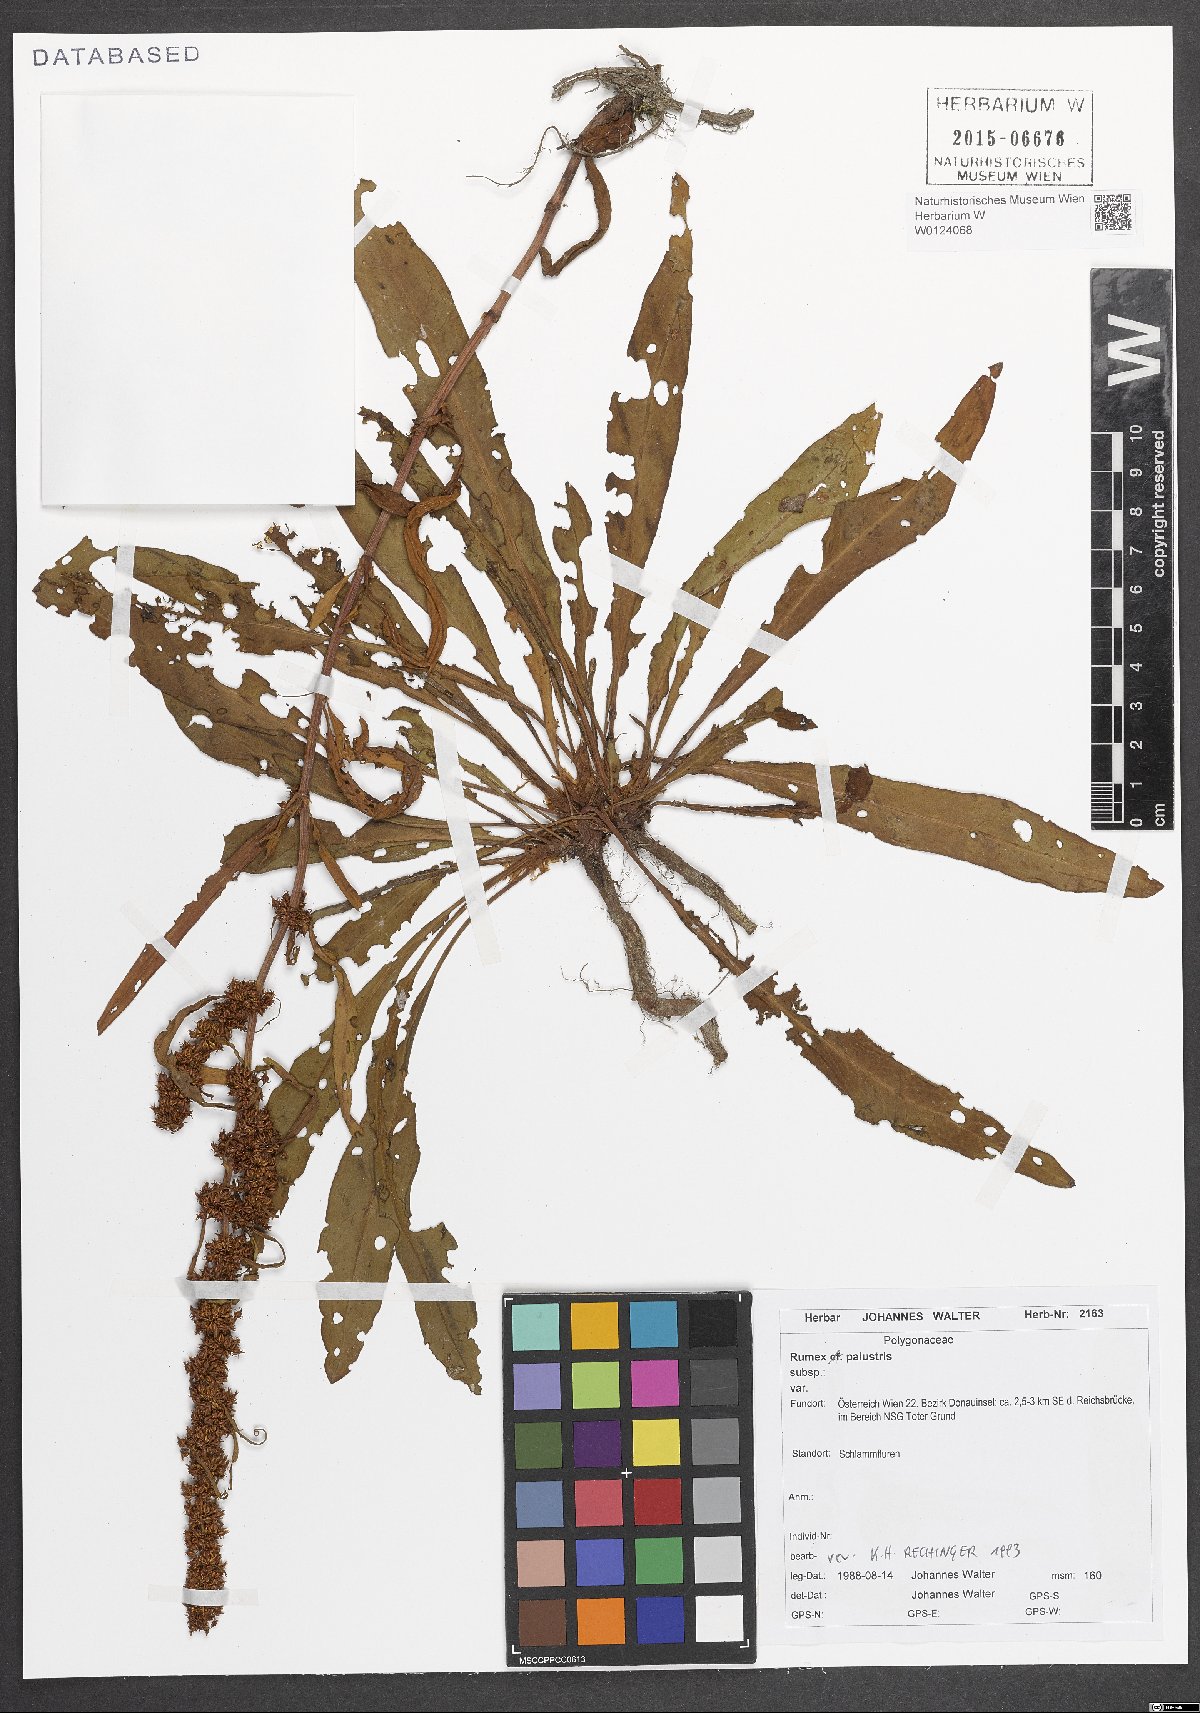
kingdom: Plantae
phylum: Tracheophyta
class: Magnoliopsida
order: Caryophyllales
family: Polygonaceae
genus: Rumex
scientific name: Rumex palustris
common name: Marsh dock
